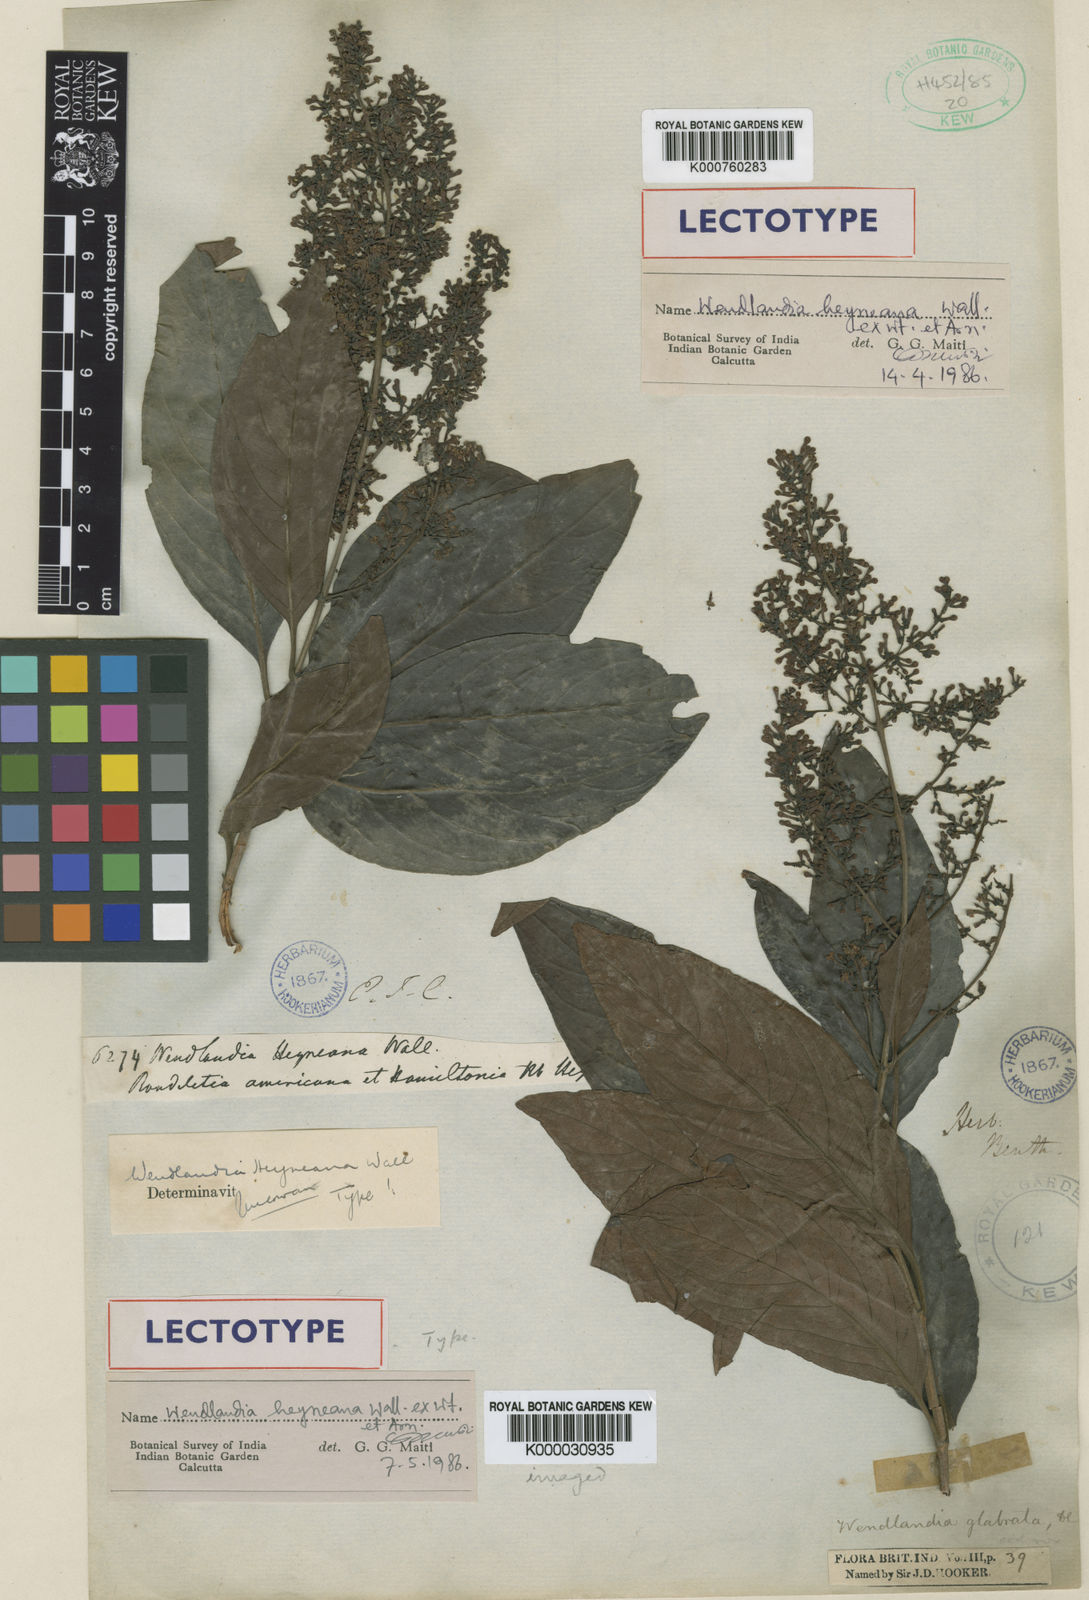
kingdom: Plantae
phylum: Tracheophyta
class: Magnoliopsida
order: Gentianales
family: Rubiaceae
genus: Wendlandia
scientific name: Wendlandia
